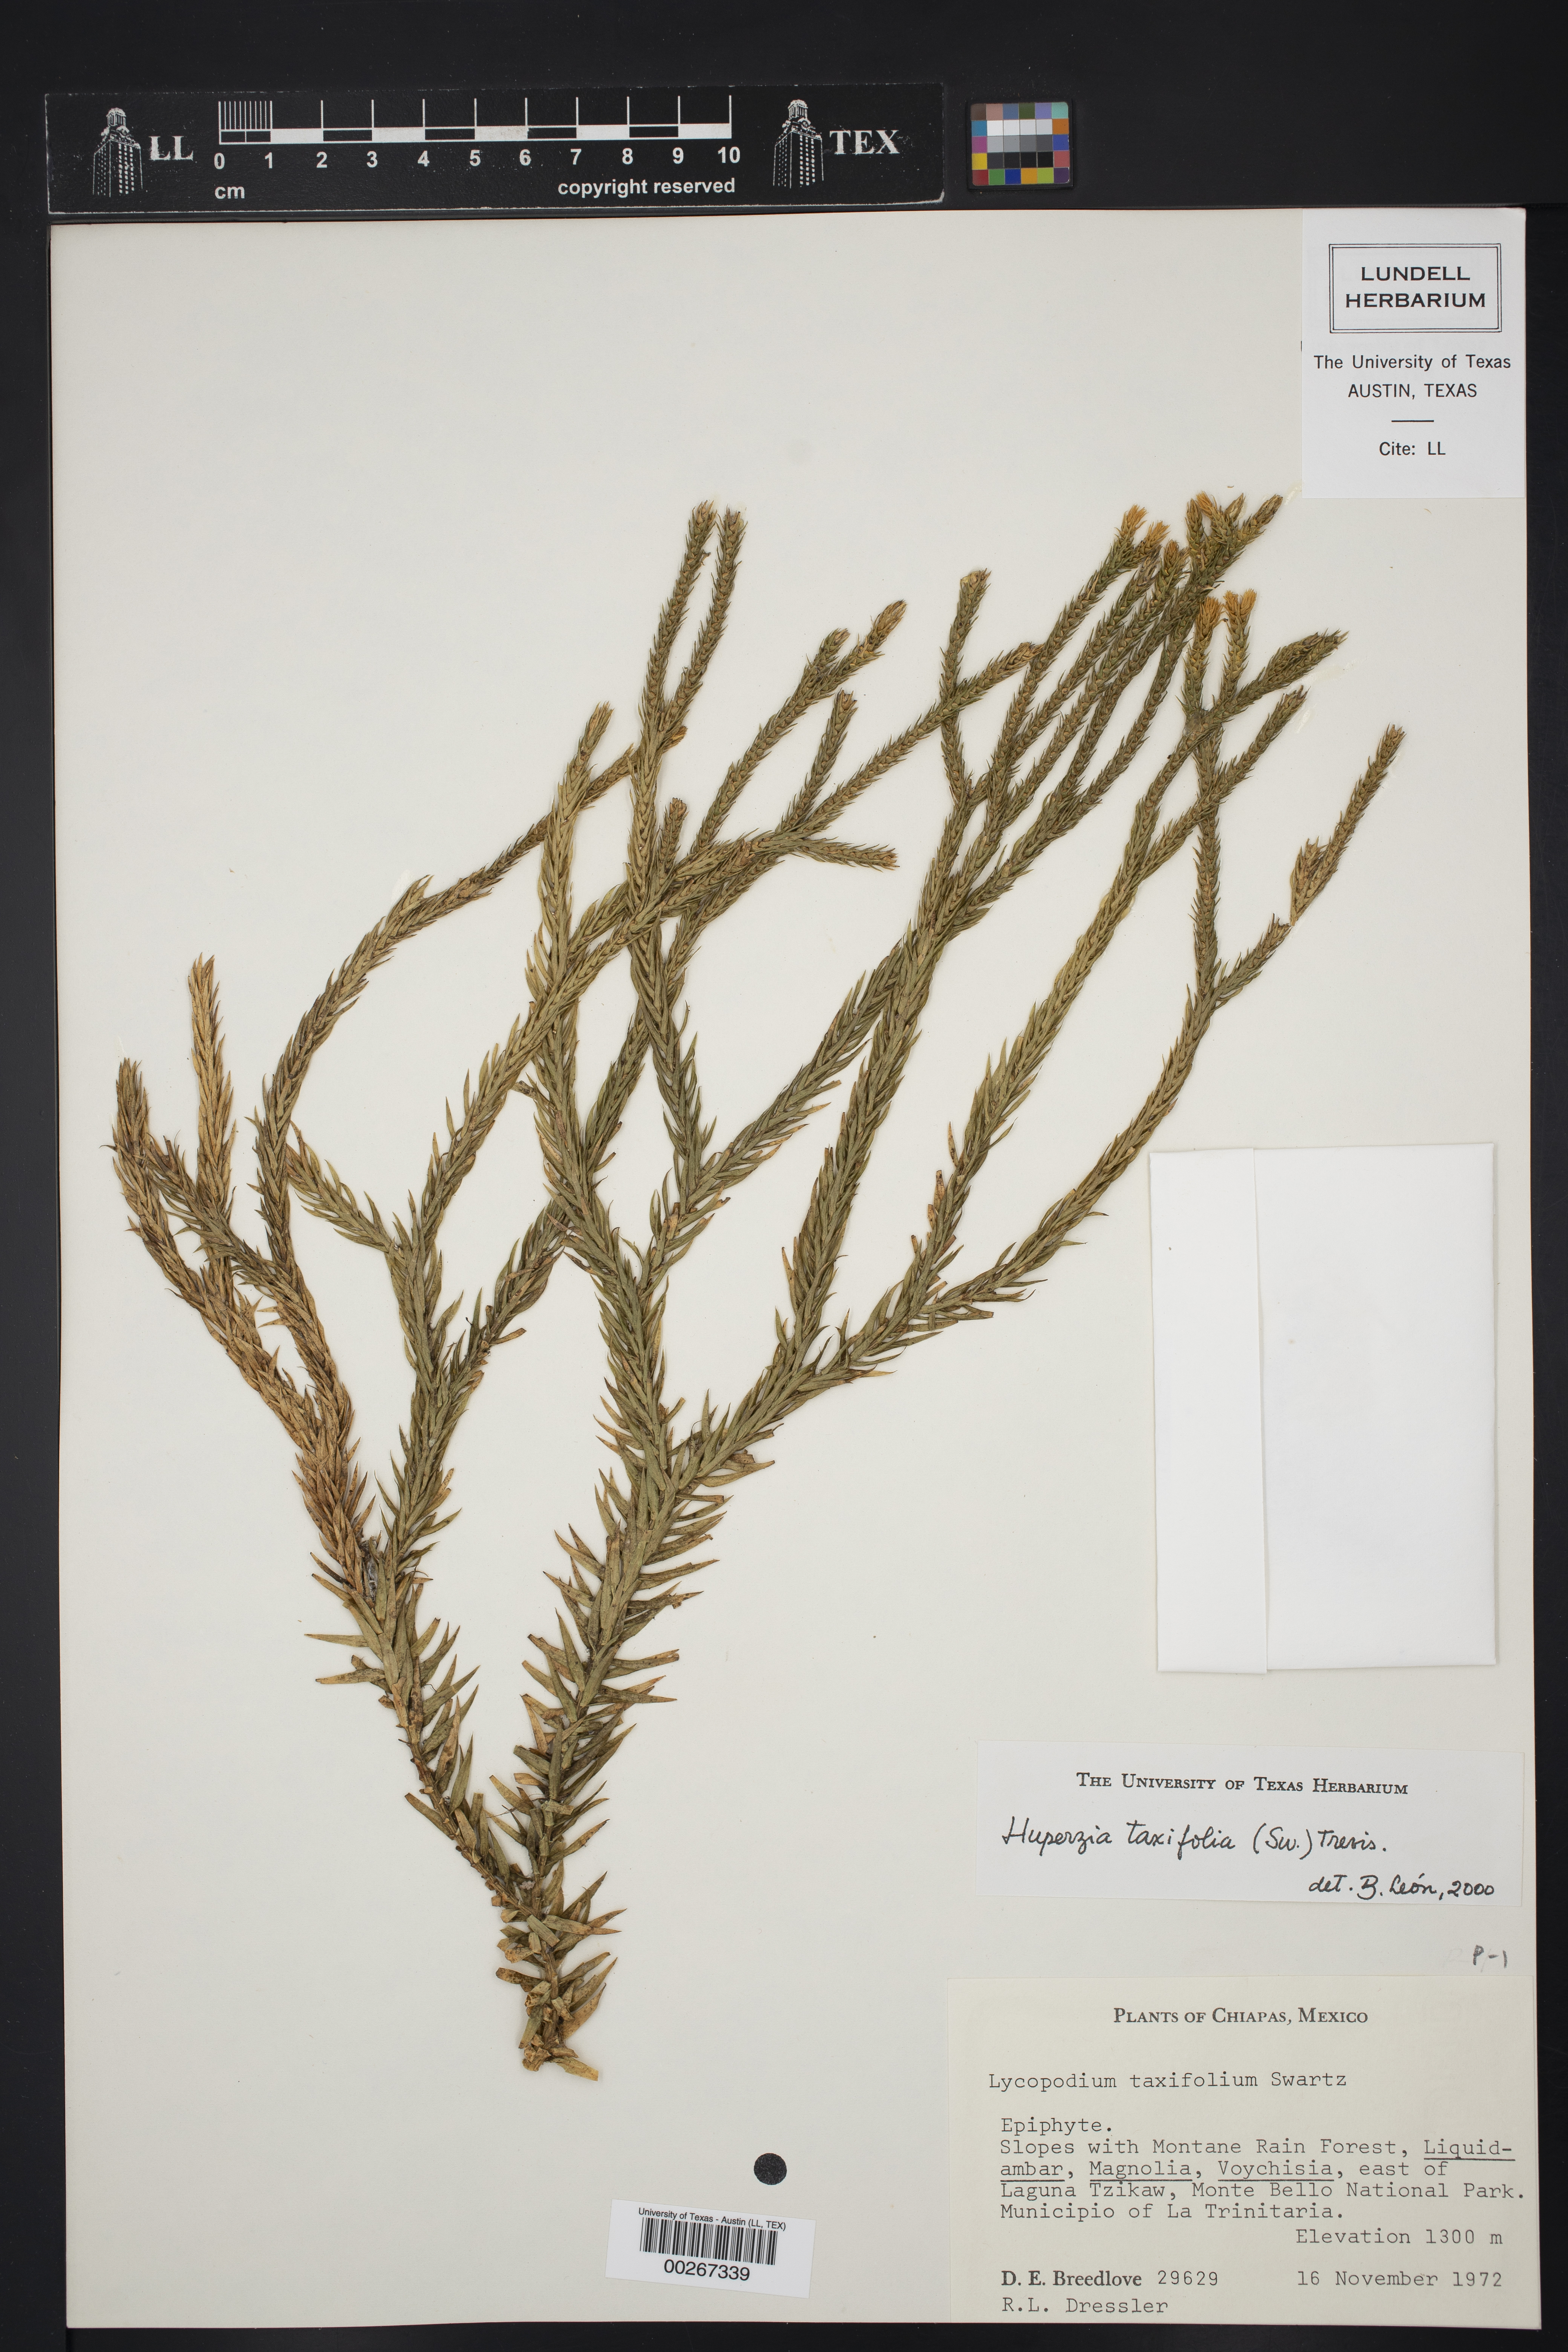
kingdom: Plantae
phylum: Tracheophyta
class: Lycopodiopsida
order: Lycopodiales
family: Lycopodiaceae
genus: Phlegmariurus
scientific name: Phlegmariurus taxifolius
